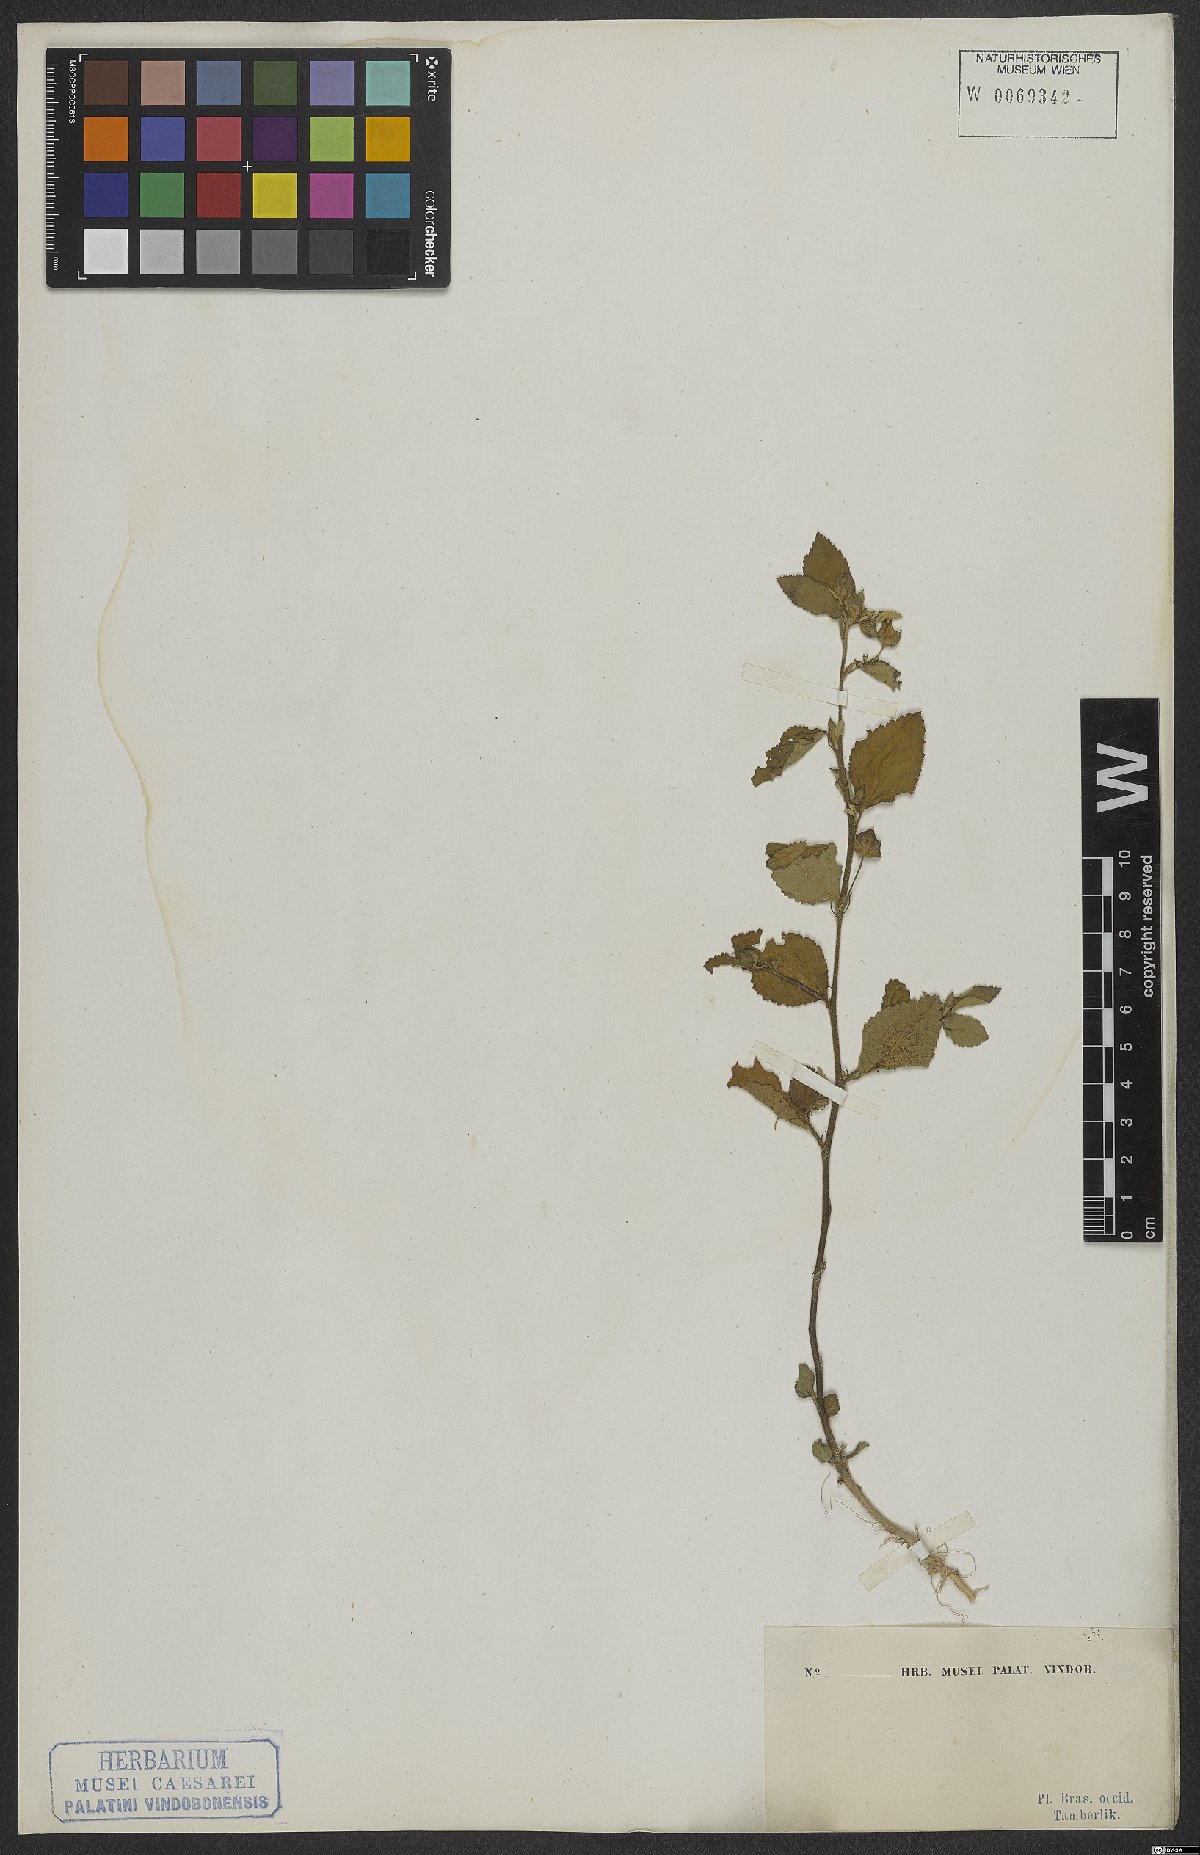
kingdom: Plantae
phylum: Tracheophyta
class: Magnoliopsida
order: Malvales
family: Malvaceae
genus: Sida
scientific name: Sida rhombifolia
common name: Queensland-hemp
